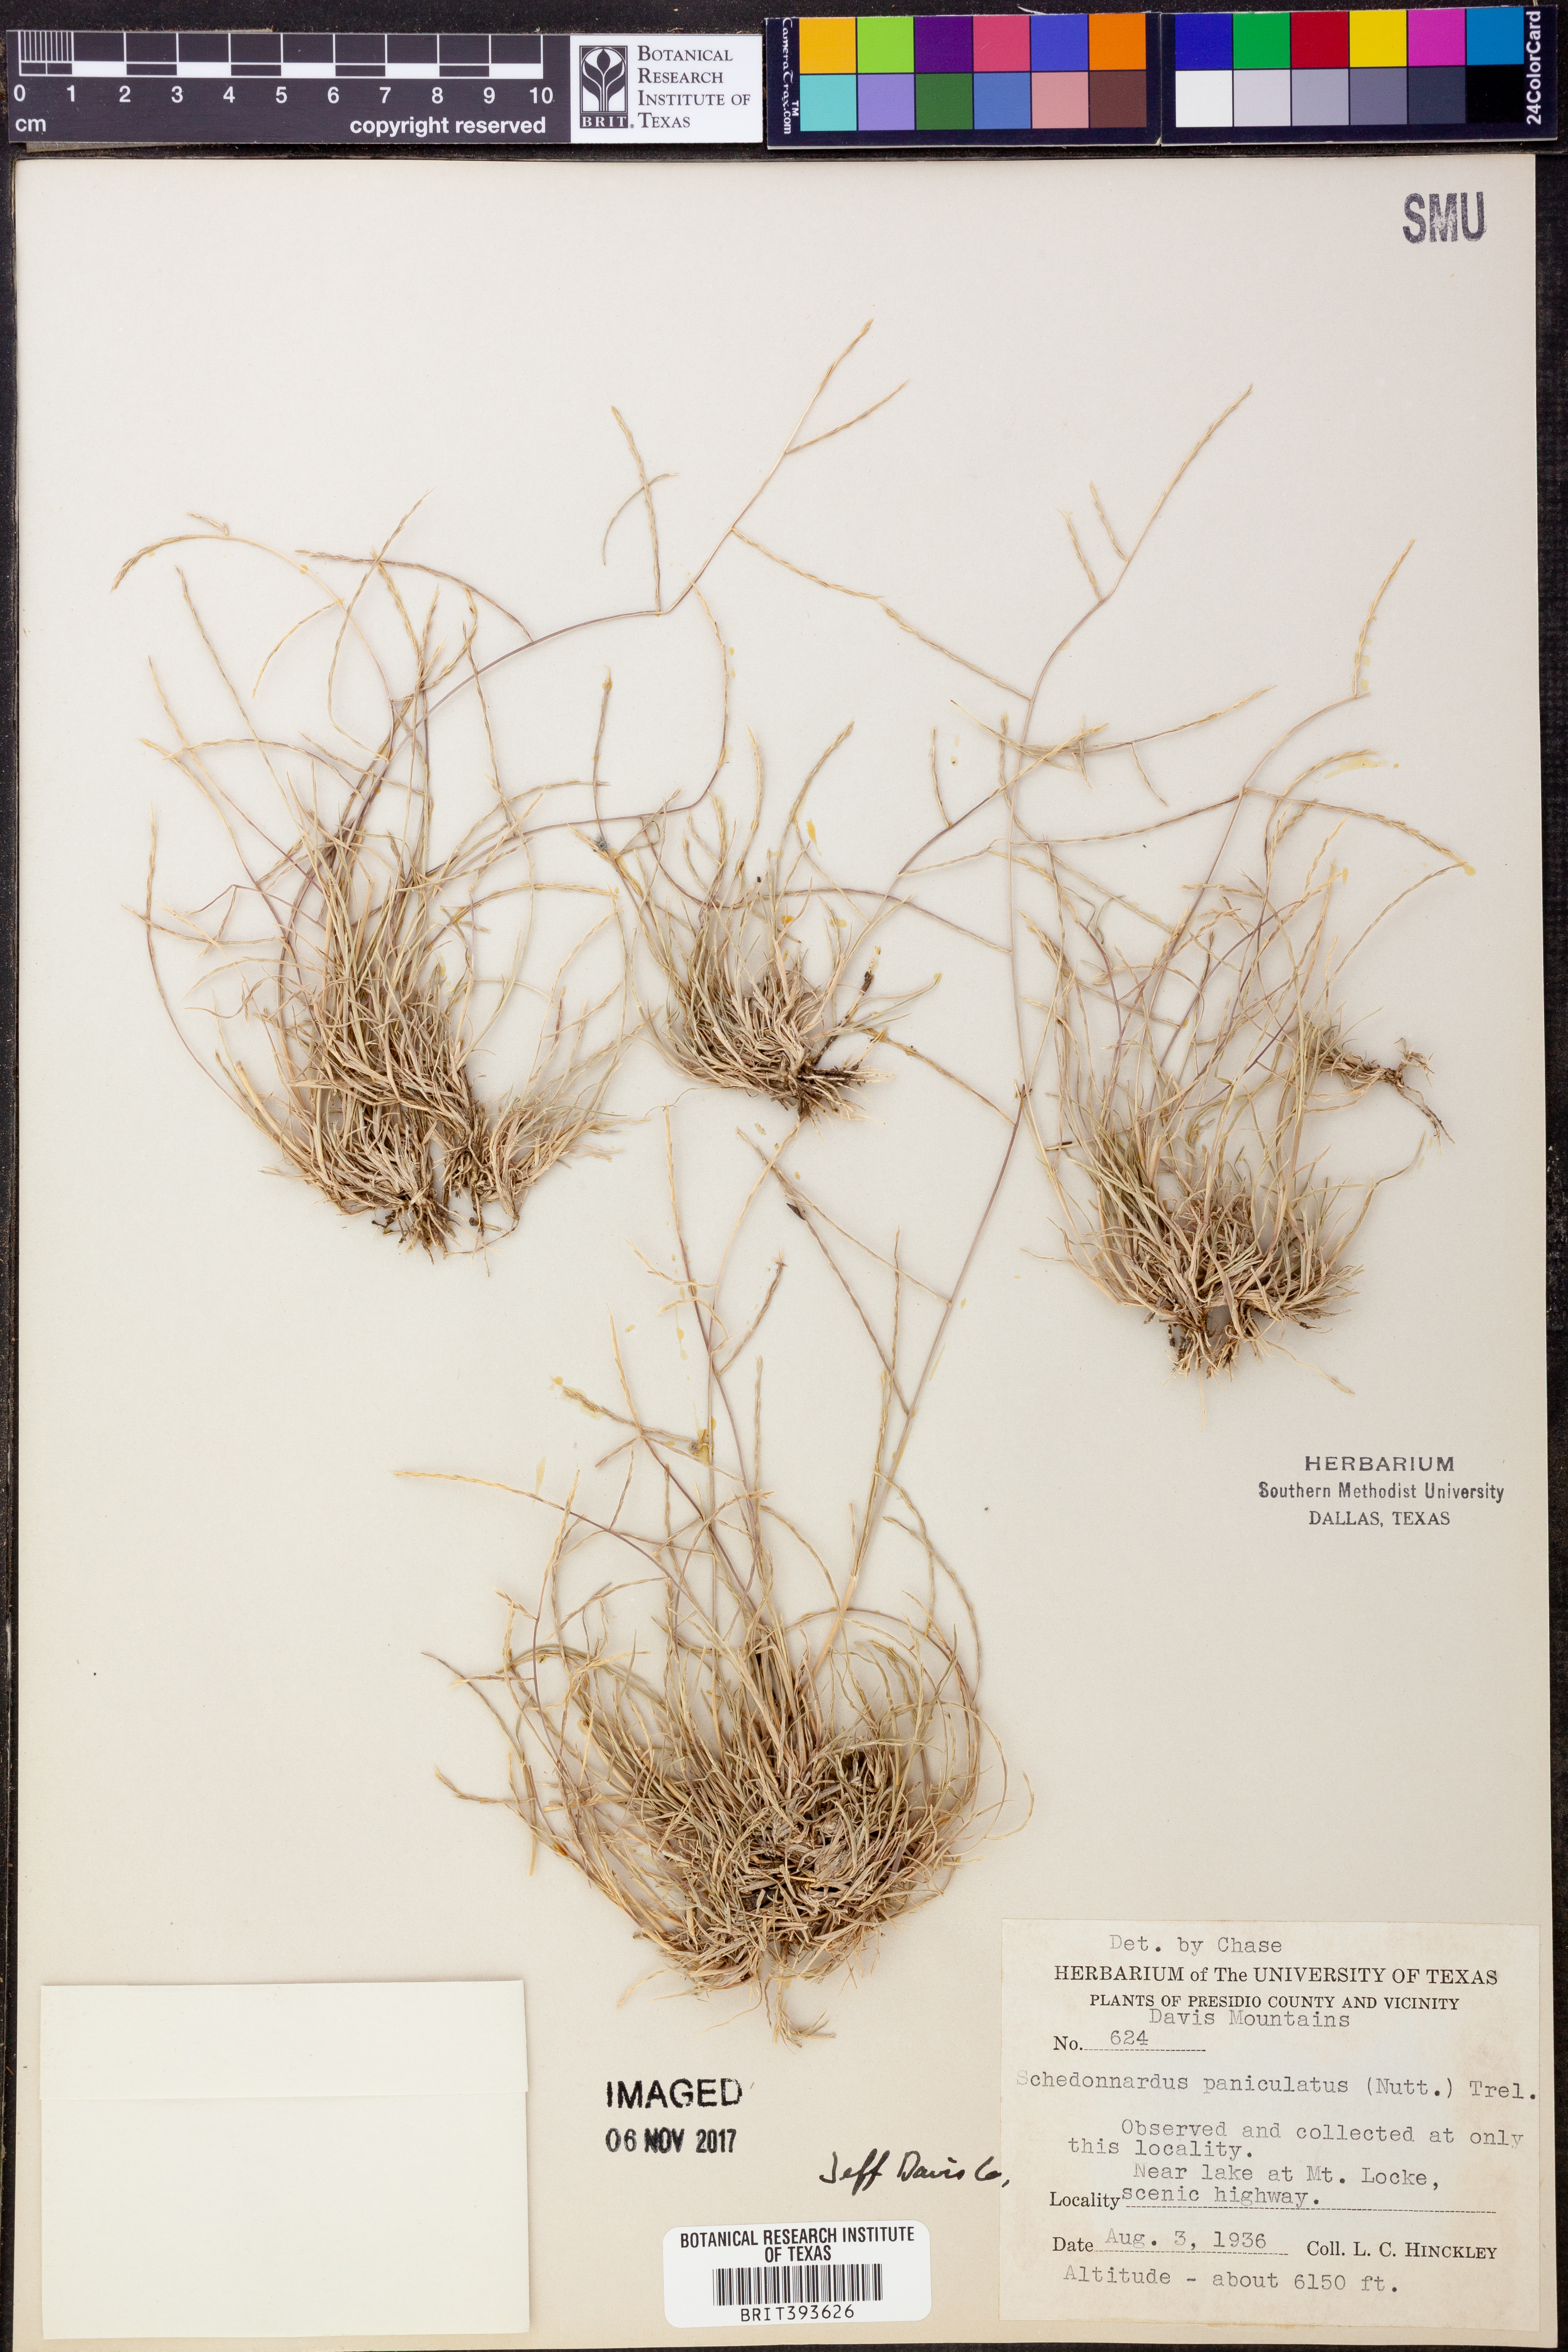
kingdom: Plantae
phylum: Tracheophyta
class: Liliopsida
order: Poales
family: Poaceae
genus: Muhlenbergia
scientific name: Muhlenbergia paniculata
